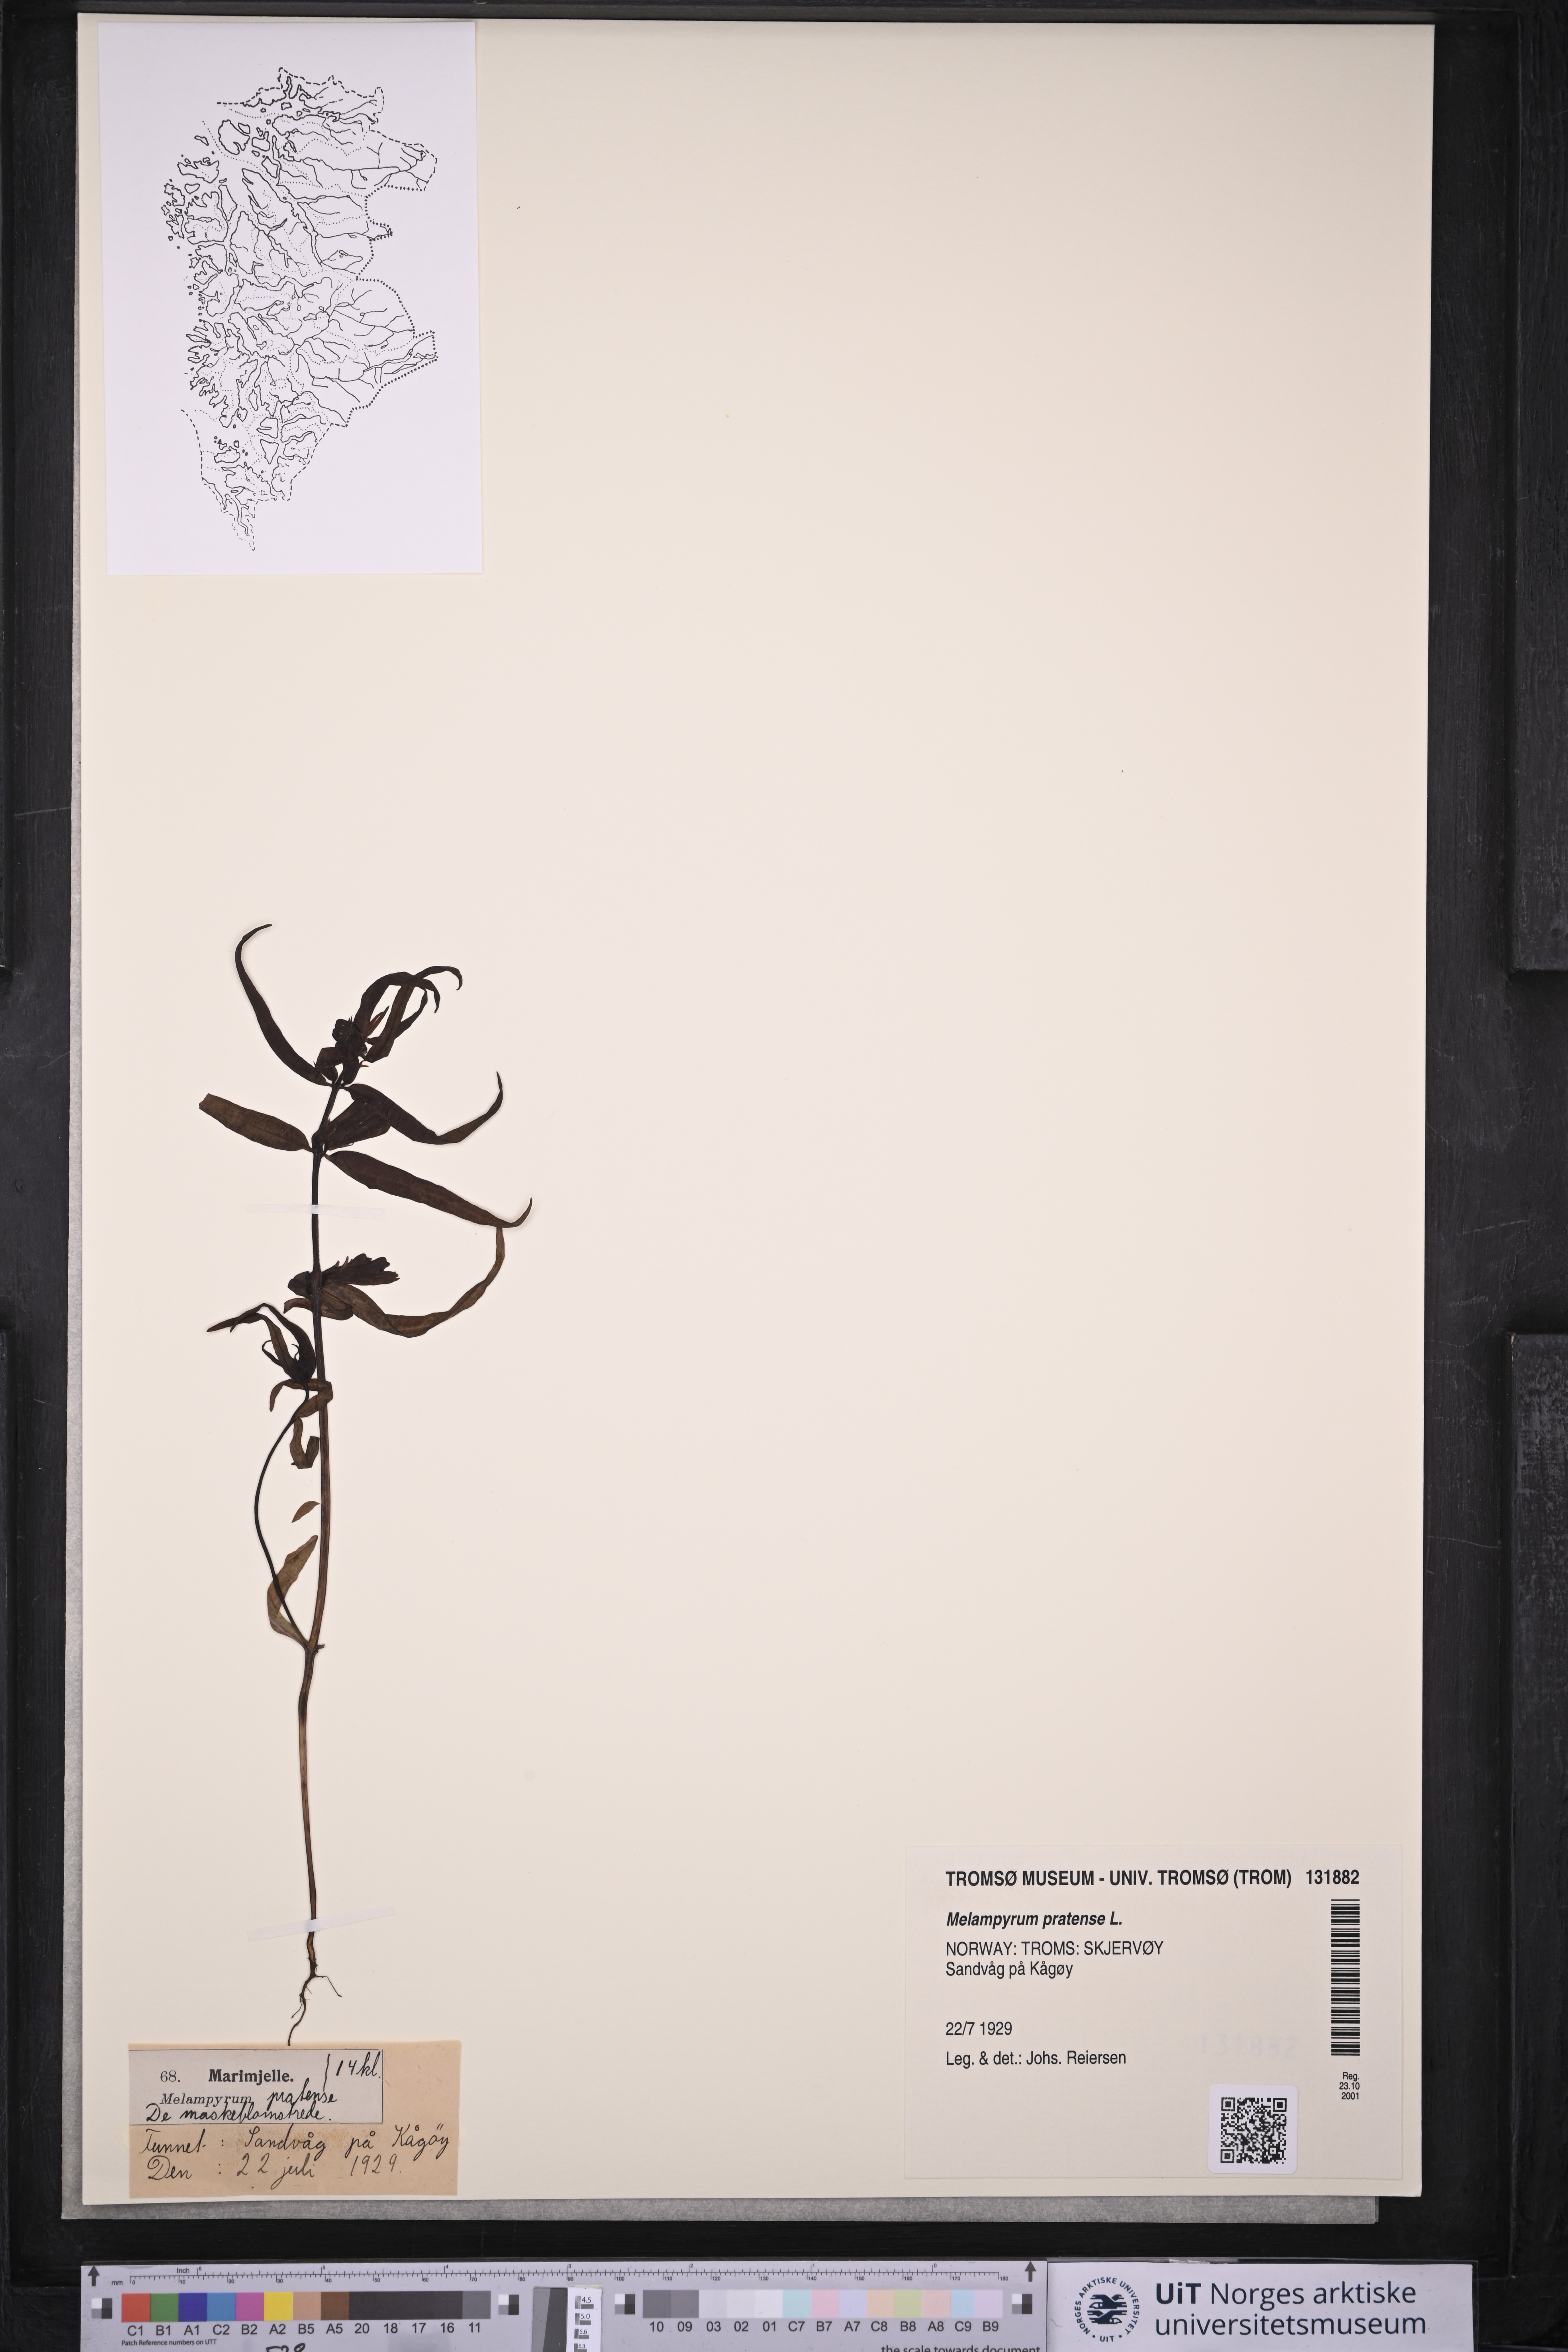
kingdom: Plantae
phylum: Tracheophyta
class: Magnoliopsida
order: Lamiales
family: Orobanchaceae
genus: Melampyrum
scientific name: Melampyrum pratense
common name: Common cow-wheat
